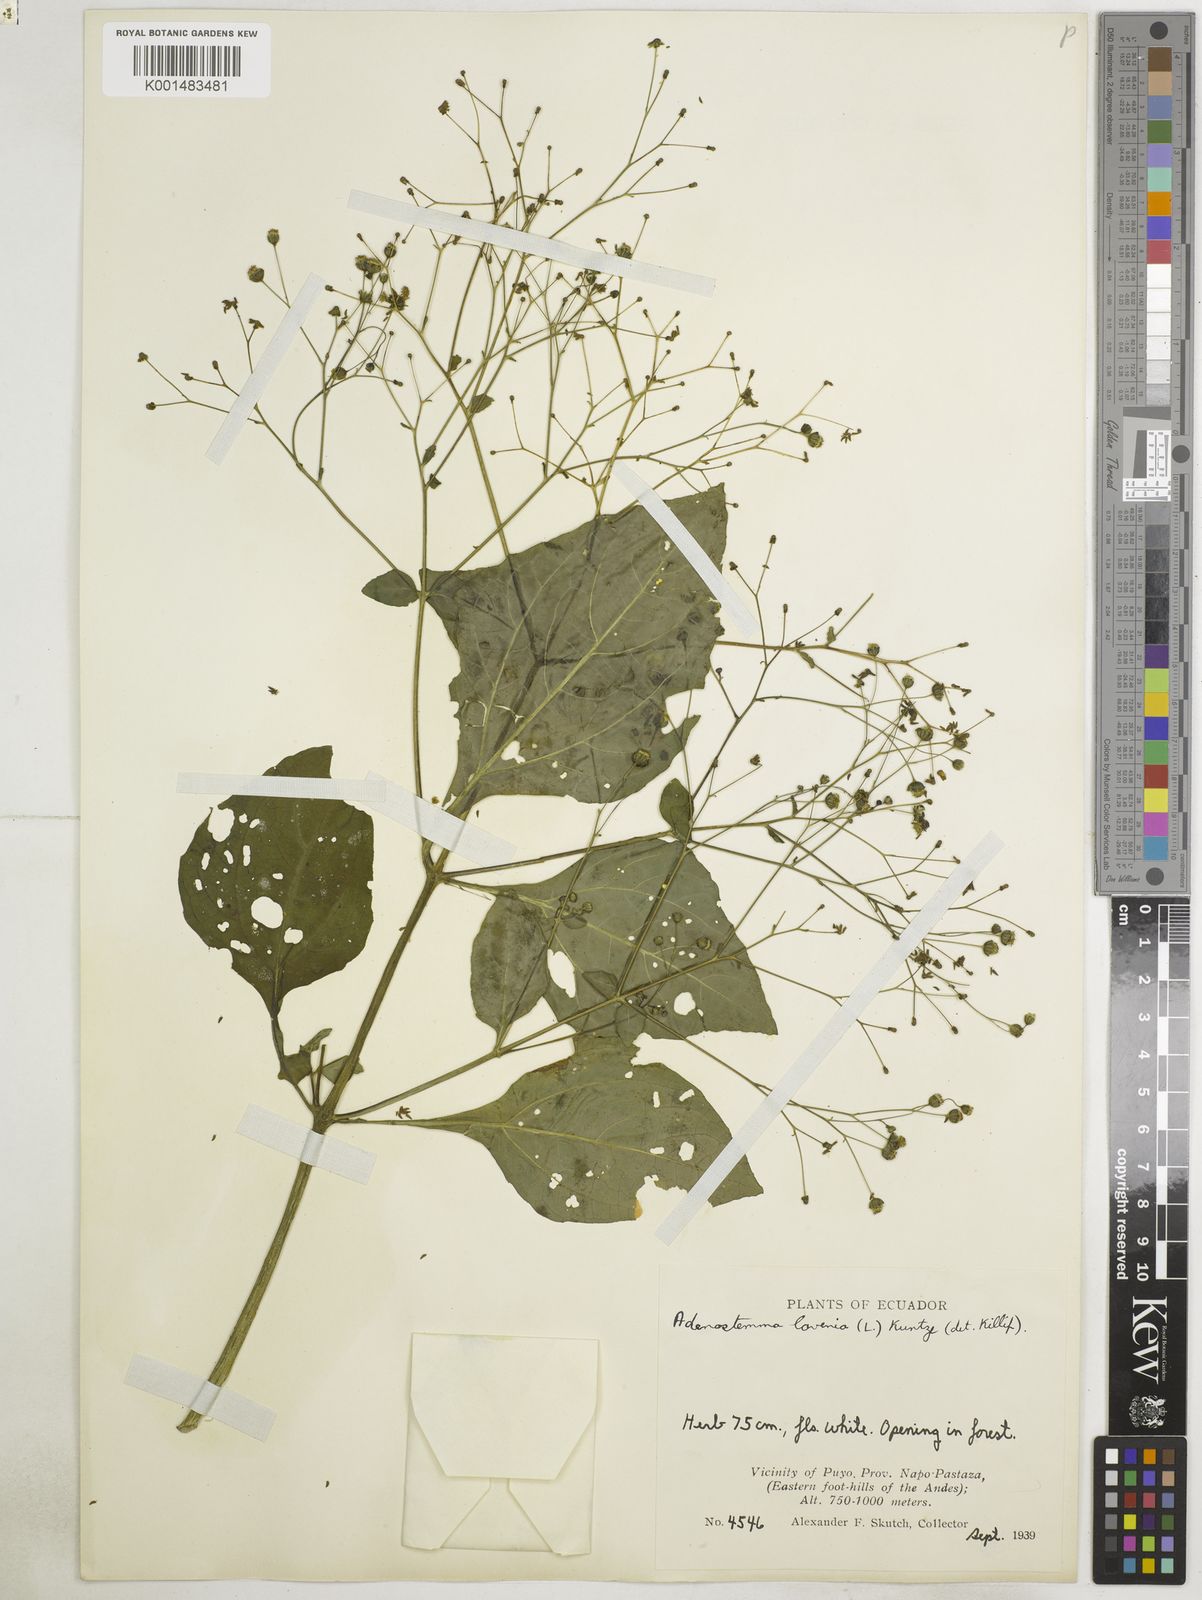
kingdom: Plantae
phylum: Tracheophyta
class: Magnoliopsida
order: Asterales
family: Asteraceae
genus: Adenostemma
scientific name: Adenostemma lavenia
